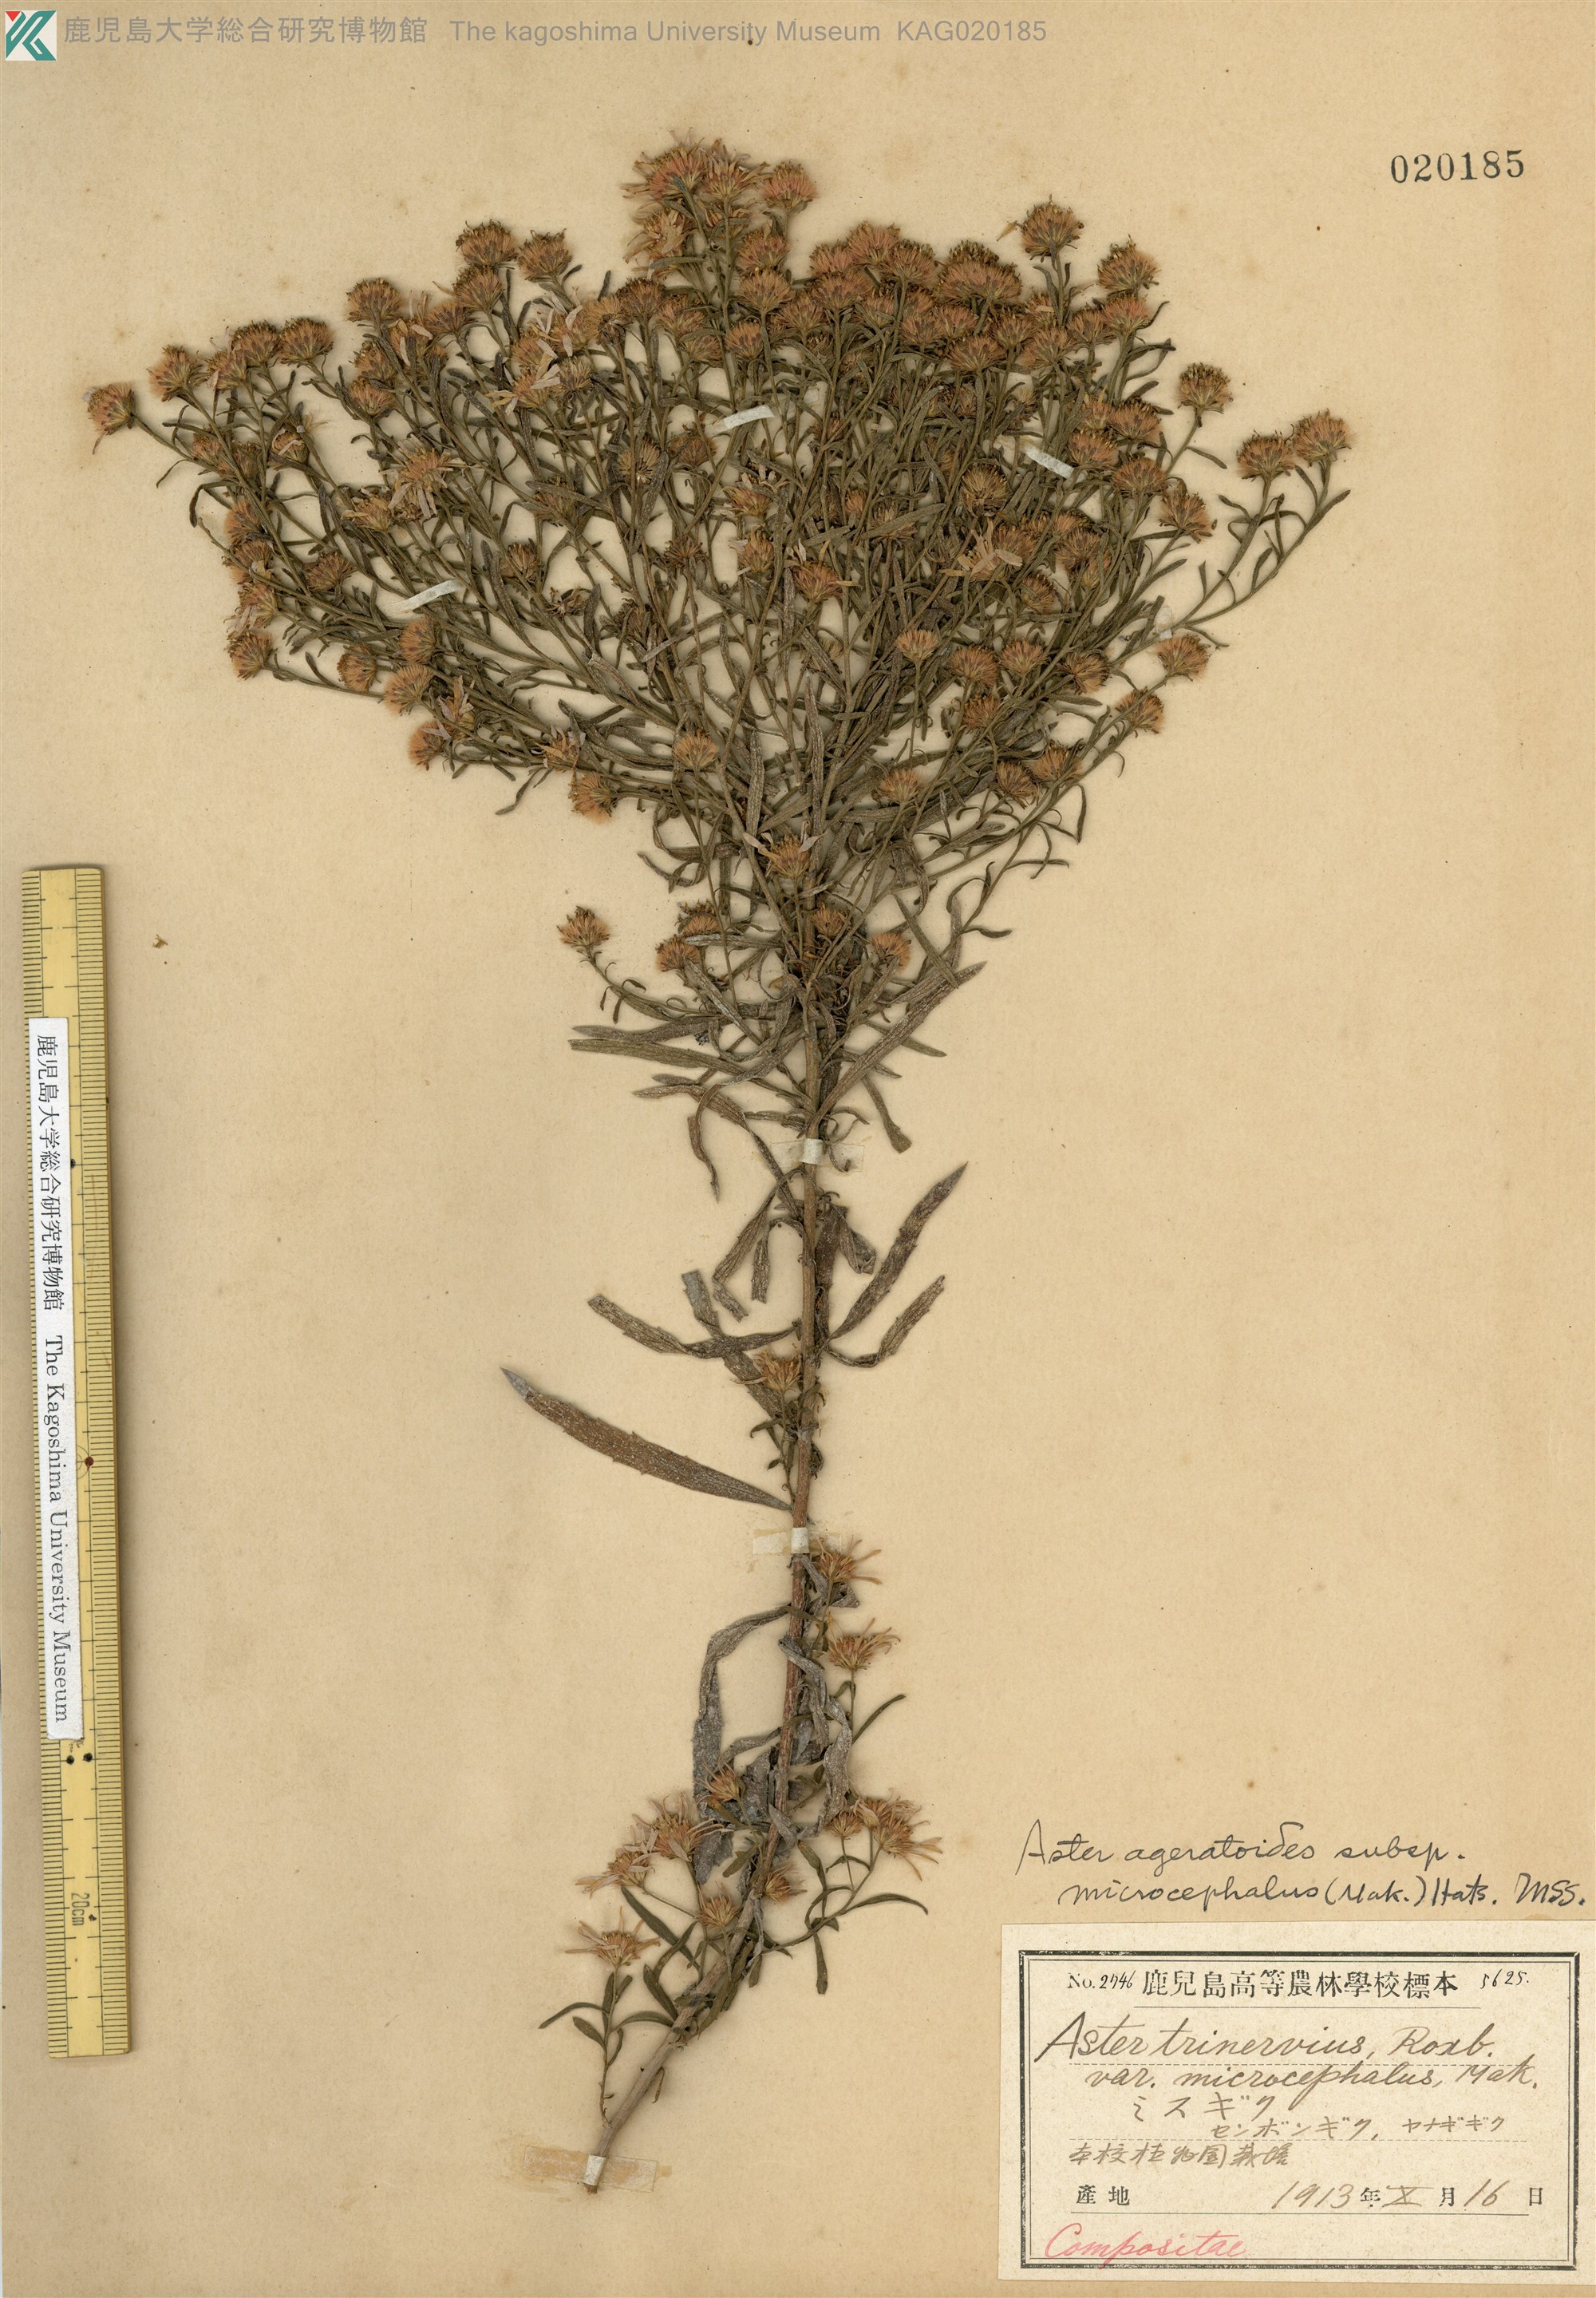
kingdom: Plantae
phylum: Tracheophyta
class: Magnoliopsida
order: Asterales
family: Asteraceae
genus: Aster
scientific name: Aster microcephalus
